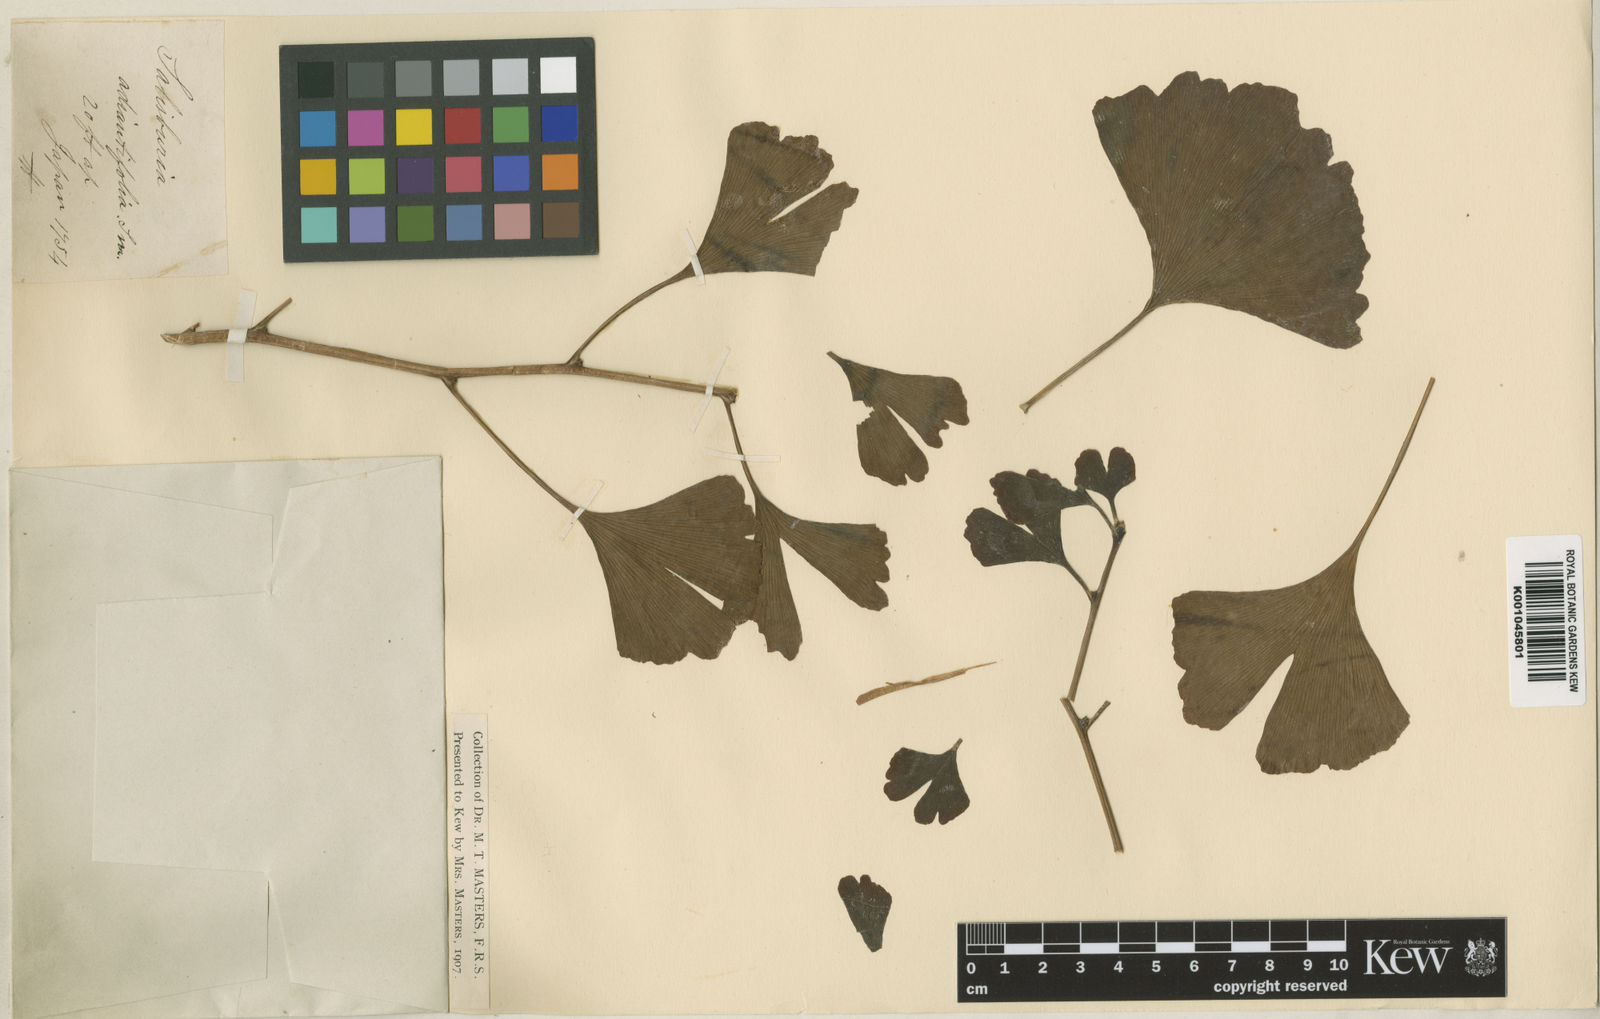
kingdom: Plantae
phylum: Tracheophyta
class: Ginkgoopsida
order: Ginkgoales
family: Ginkgoaceae
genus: Ginkgo
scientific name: Ginkgo biloba
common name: Ginkgo
